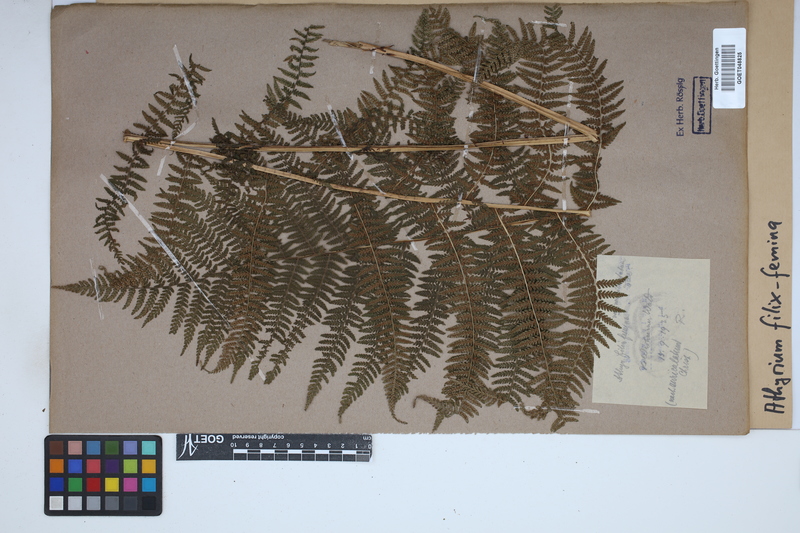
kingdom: Plantae
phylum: Tracheophyta
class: Polypodiopsida
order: Polypodiales
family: Athyriaceae
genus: Athyrium
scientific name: Athyrium filix-femina
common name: Lady fern
